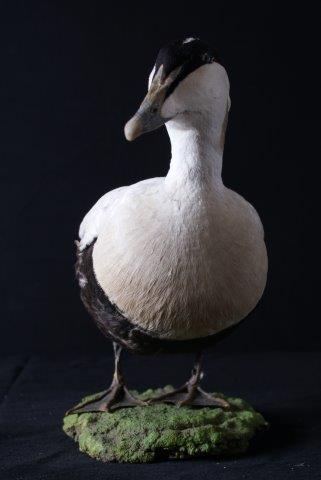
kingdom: Animalia
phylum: Chordata
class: Aves
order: Anseriformes
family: Anatidae
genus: Somateria
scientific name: Somateria mollissima
